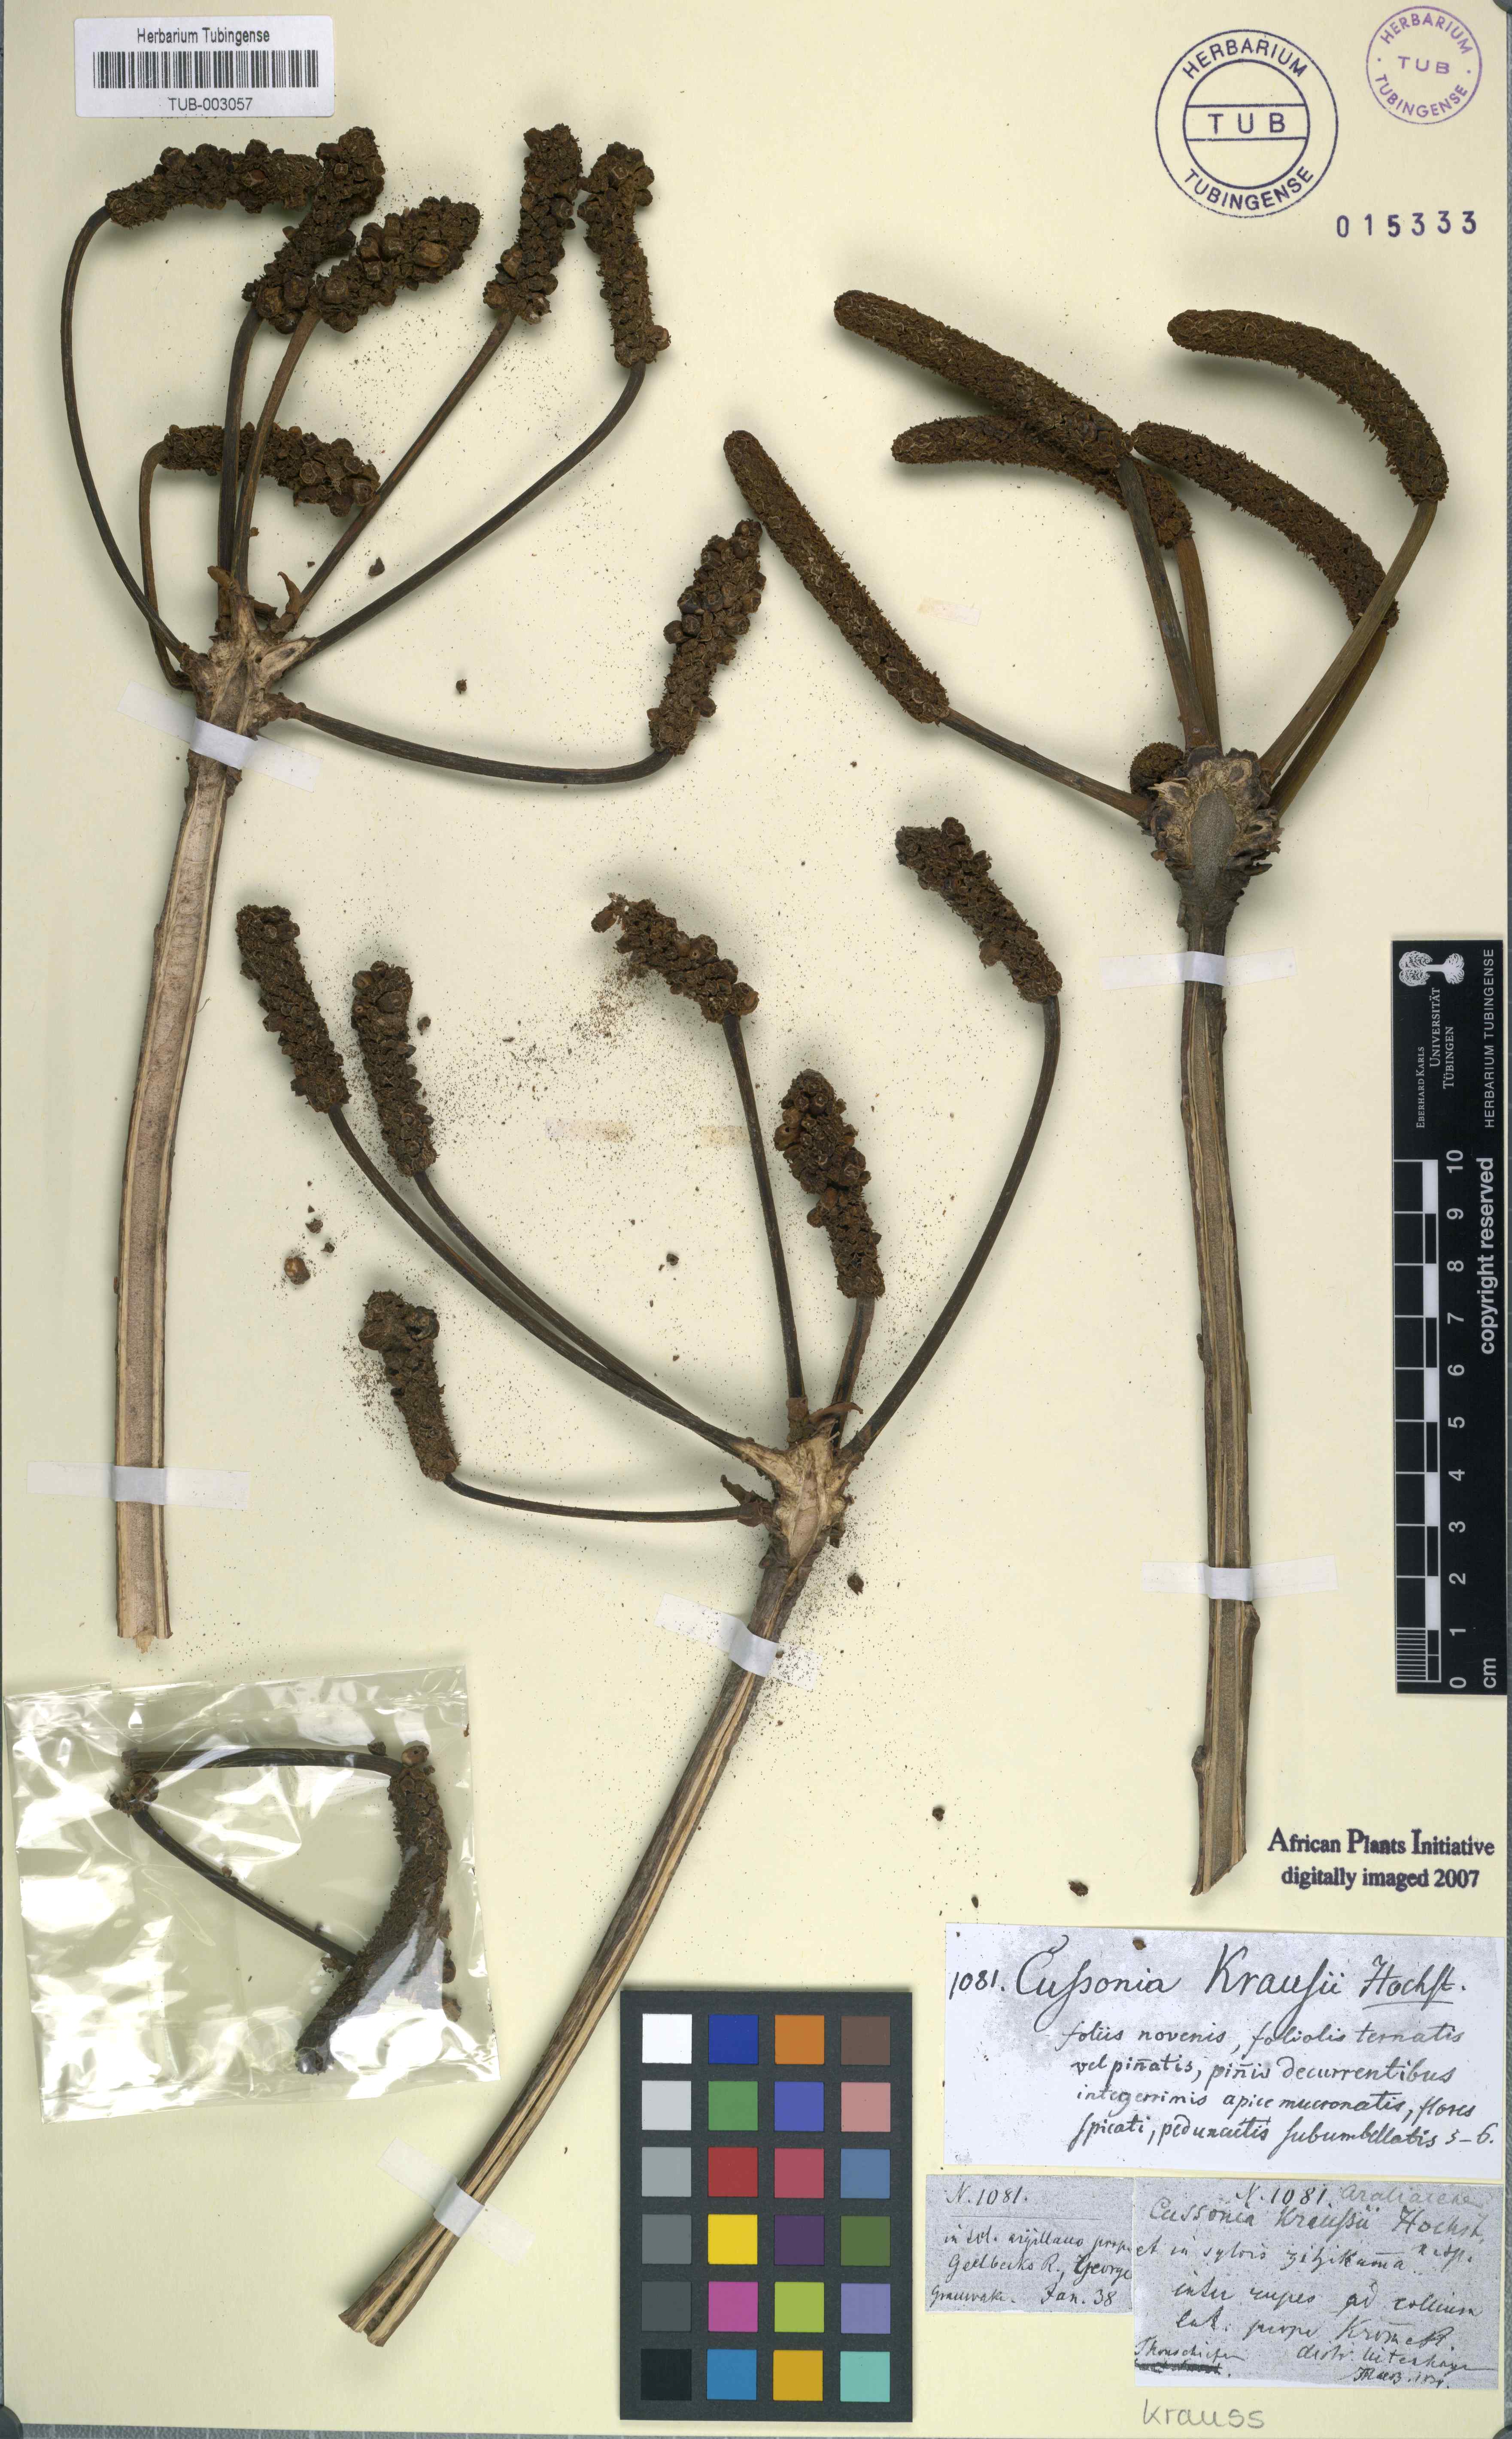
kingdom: Plantae
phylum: Tracheophyta
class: Magnoliopsida
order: Apiales
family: Araliaceae
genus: Cussonia
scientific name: Cussonia spicata
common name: Common cabbagetree
